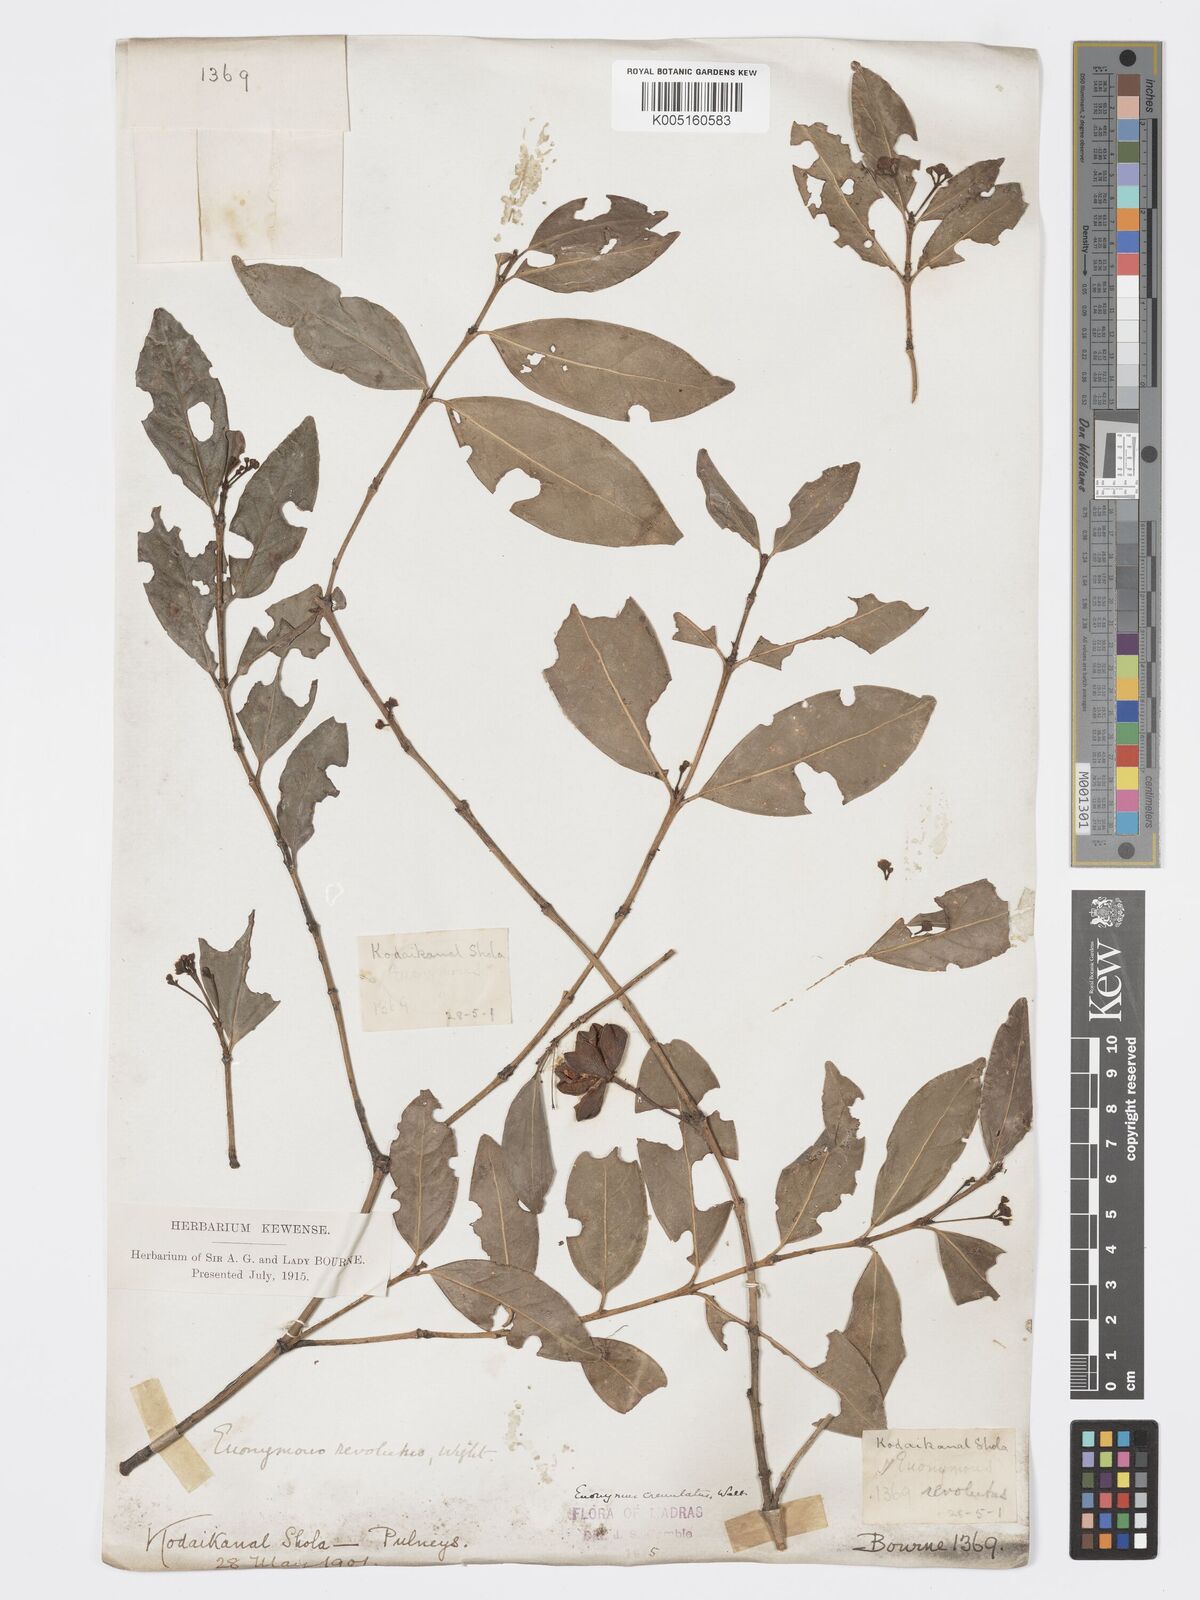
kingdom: Plantae
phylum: Tracheophyta
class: Magnoliopsida
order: Celastrales
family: Celastraceae
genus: Euonymus
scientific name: Euonymus crenulatus
